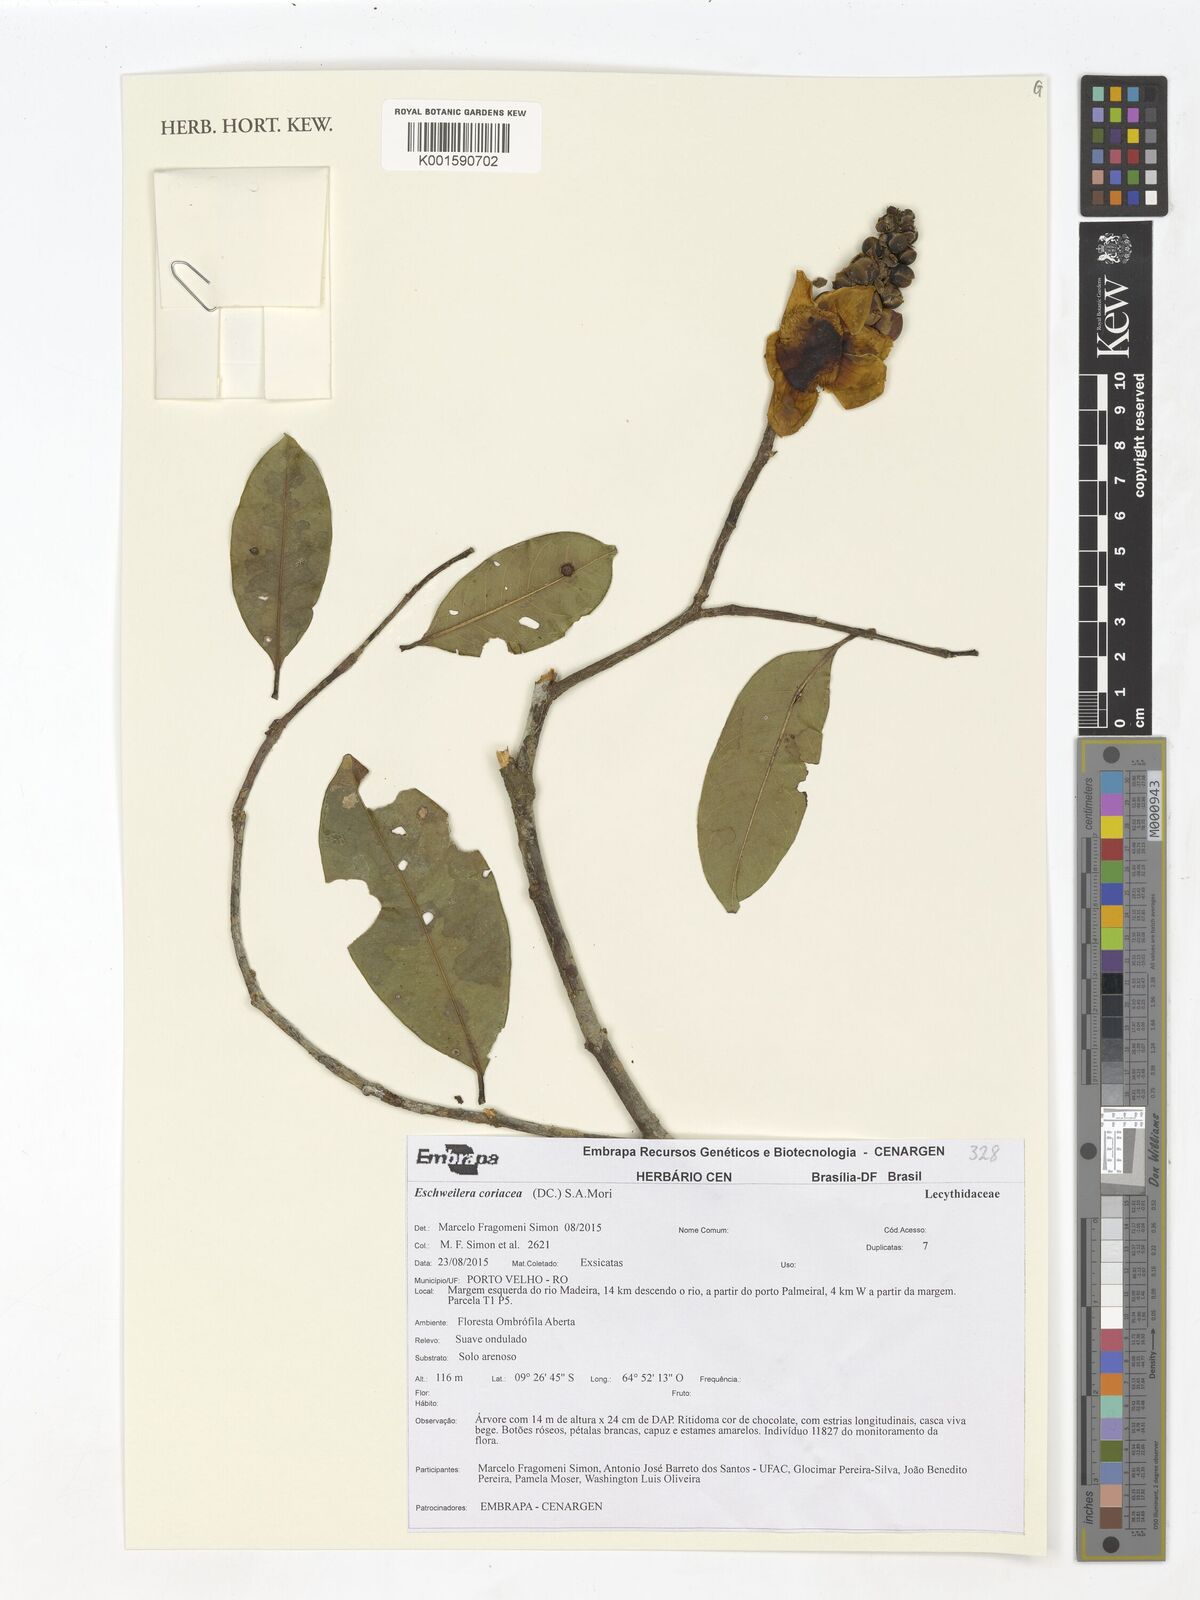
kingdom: Plantae
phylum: Tracheophyta
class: Magnoliopsida
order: Ericales
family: Lecythidaceae
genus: Eschweilera
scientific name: Eschweilera coriacea
